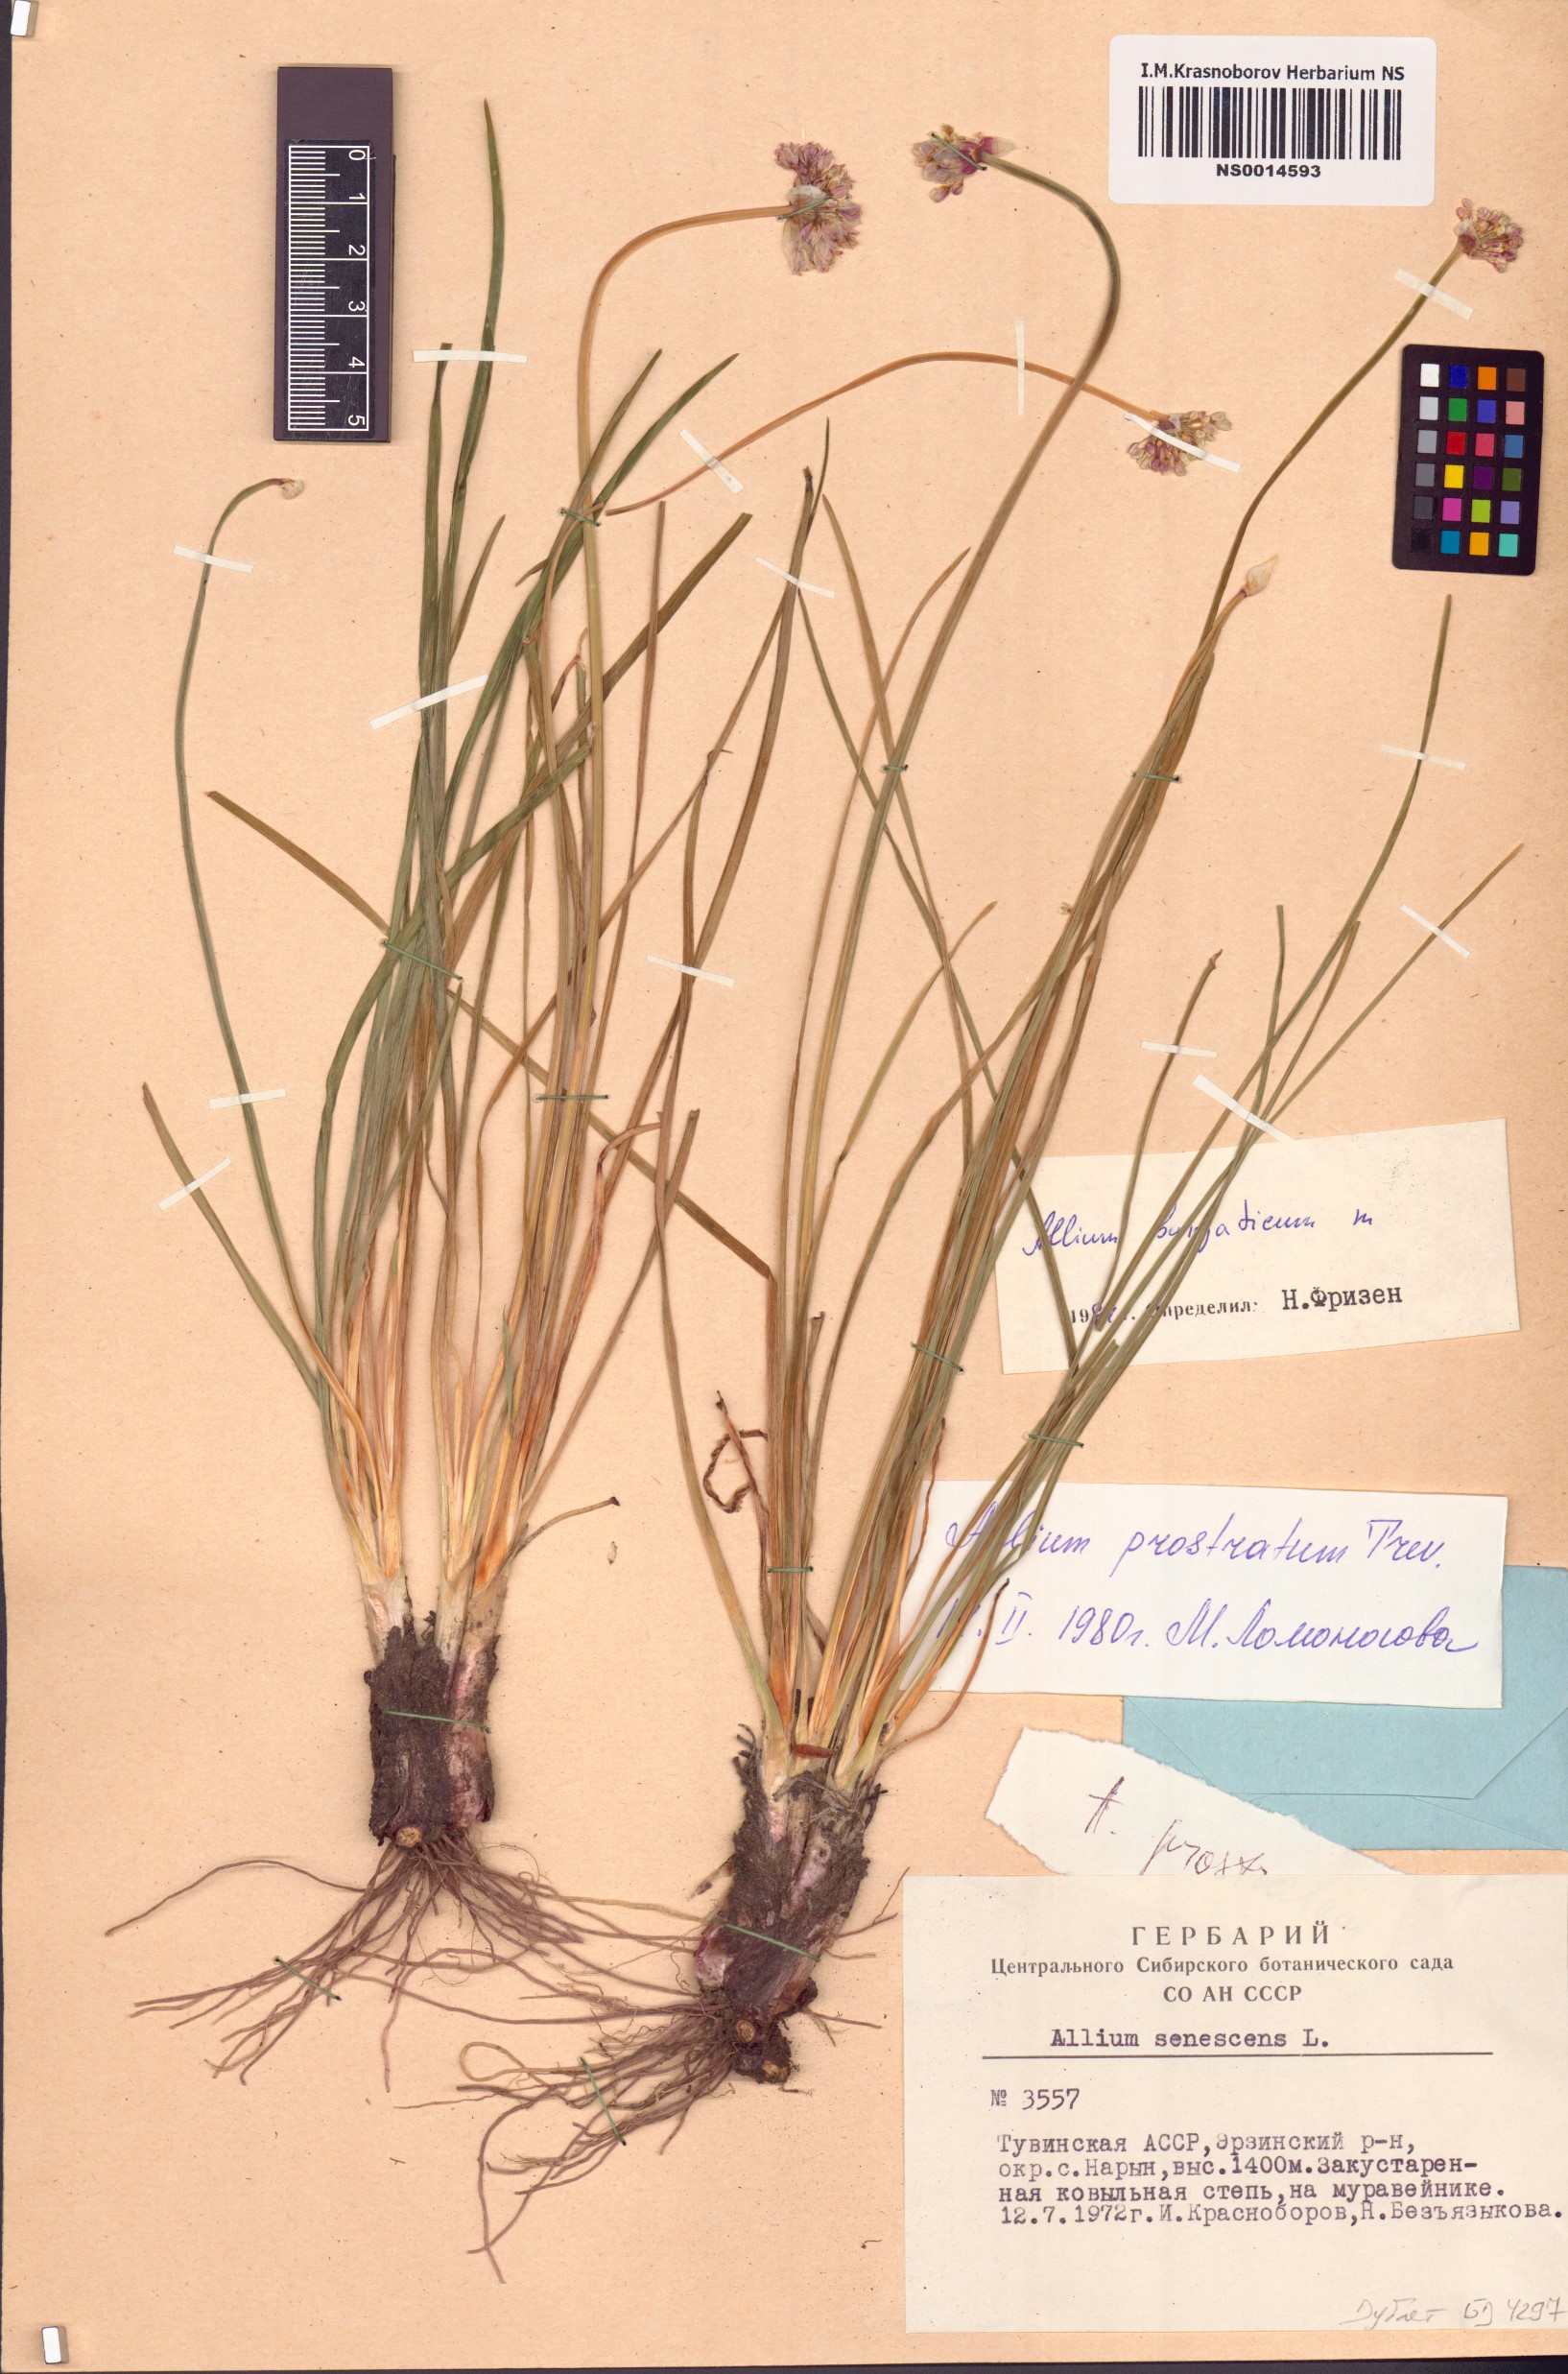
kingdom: Plantae
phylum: Tracheophyta
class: Liliopsida
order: Asparagales
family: Amaryllidaceae
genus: Allium
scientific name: Allium burjaticum
